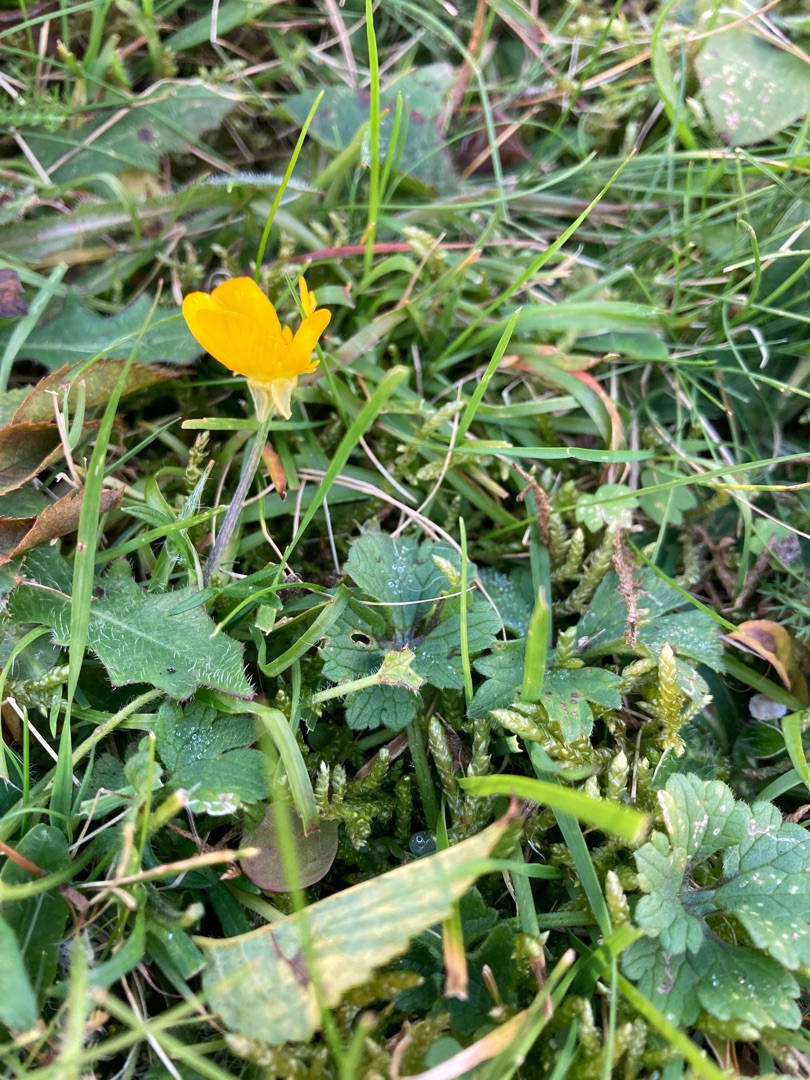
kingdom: Plantae
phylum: Tracheophyta
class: Magnoliopsida
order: Ranunculales
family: Ranunculaceae
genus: Ranunculus
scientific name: Ranunculus bulbosus
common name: Knold-ranunkel
